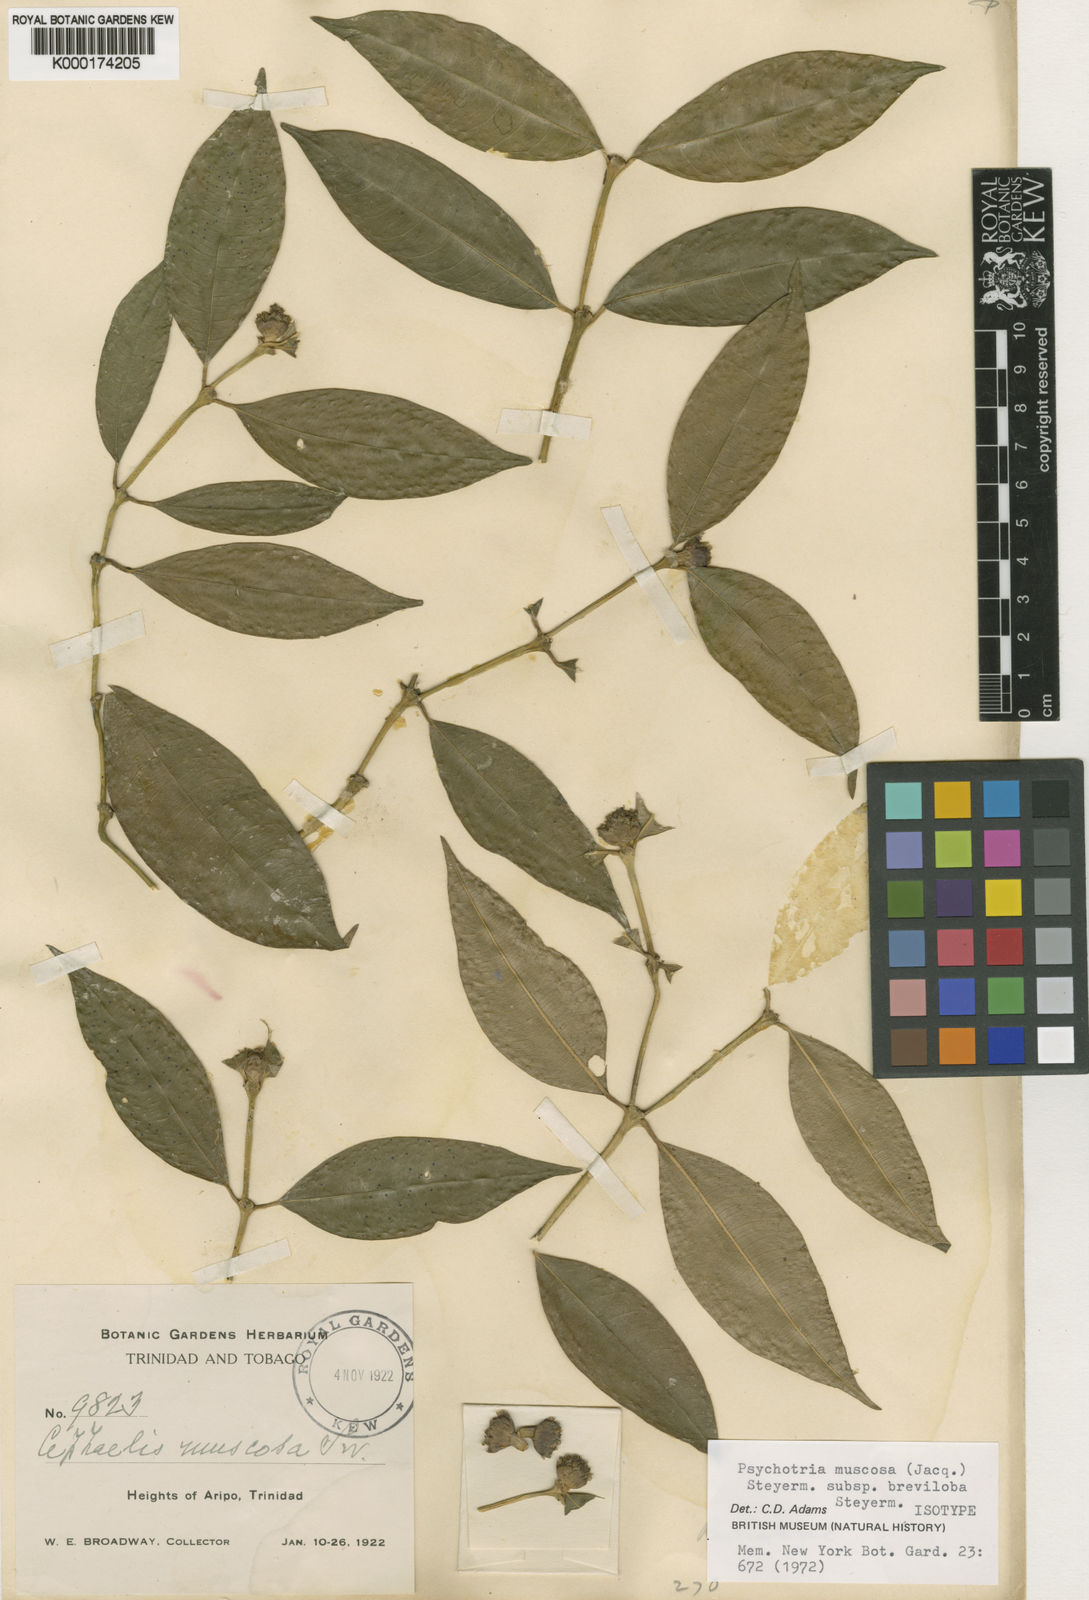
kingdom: Plantae
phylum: Tracheophyta
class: Magnoliopsida
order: Gentianales
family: Rubiaceae
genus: Palicourea
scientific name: Palicourea muscosa
